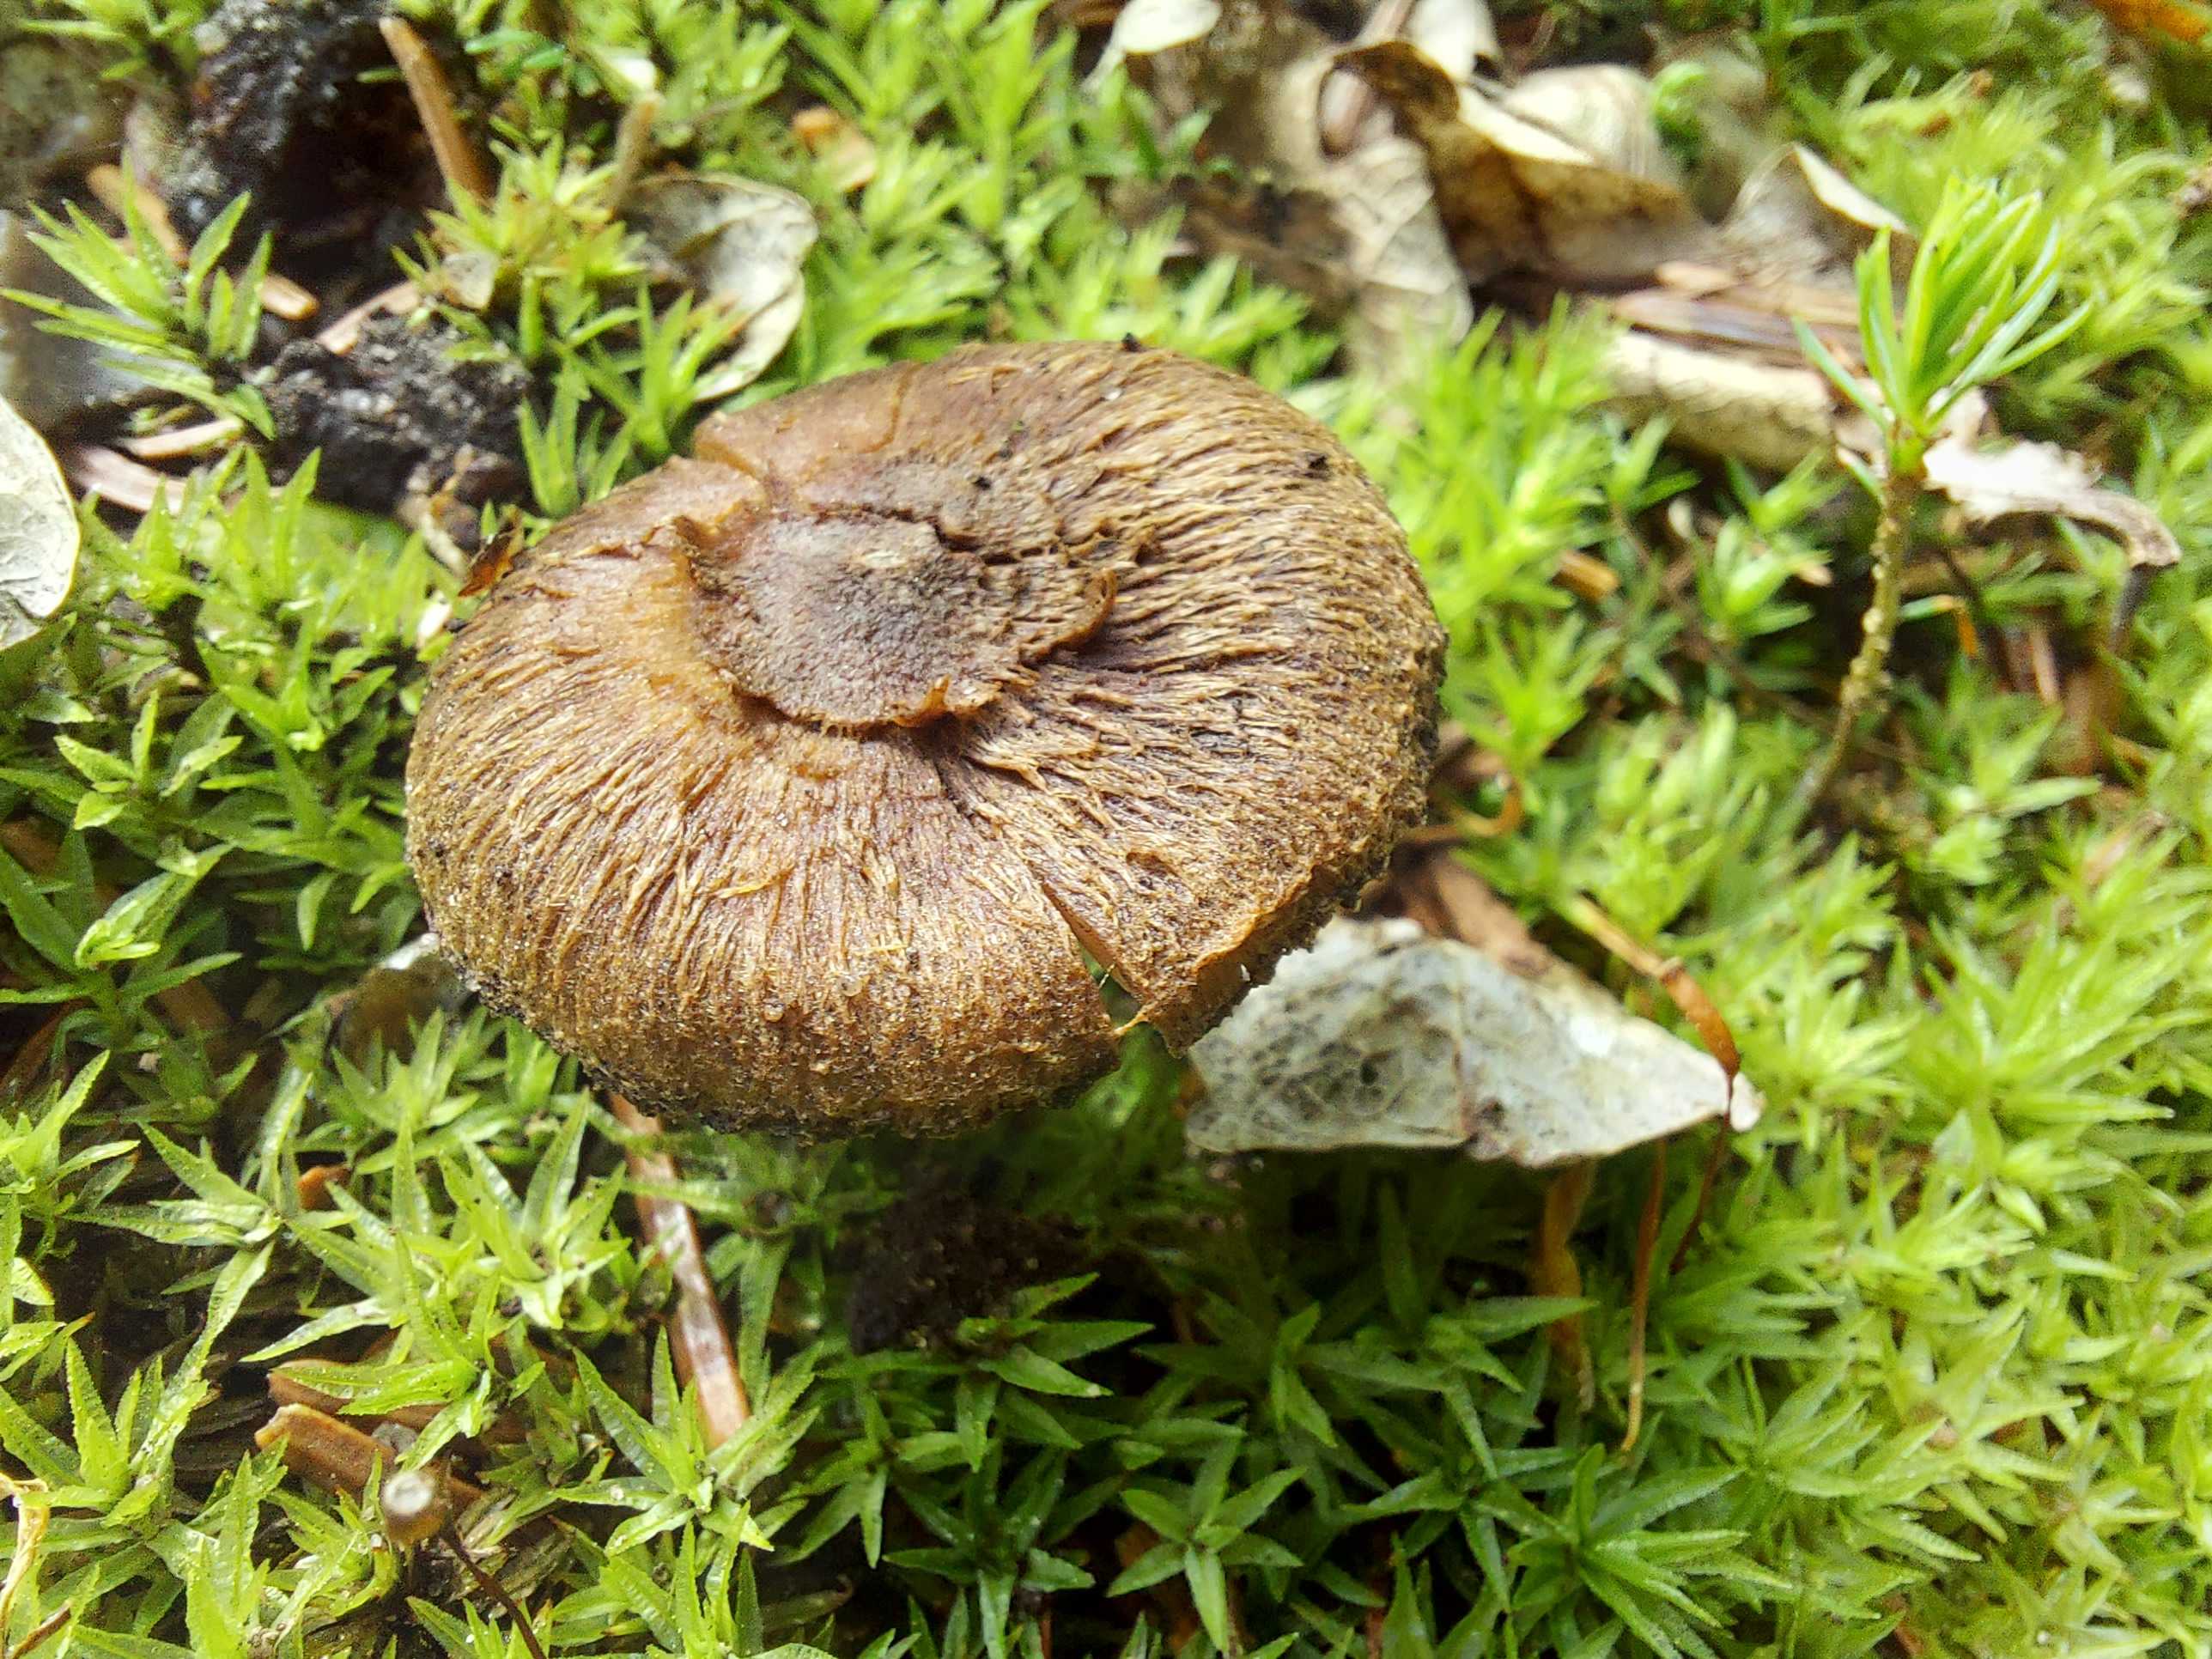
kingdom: Fungi
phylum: Basidiomycota
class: Agaricomycetes
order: Agaricales
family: Inocybaceae
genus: Inocybe
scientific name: Inocybe
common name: trævlhat
